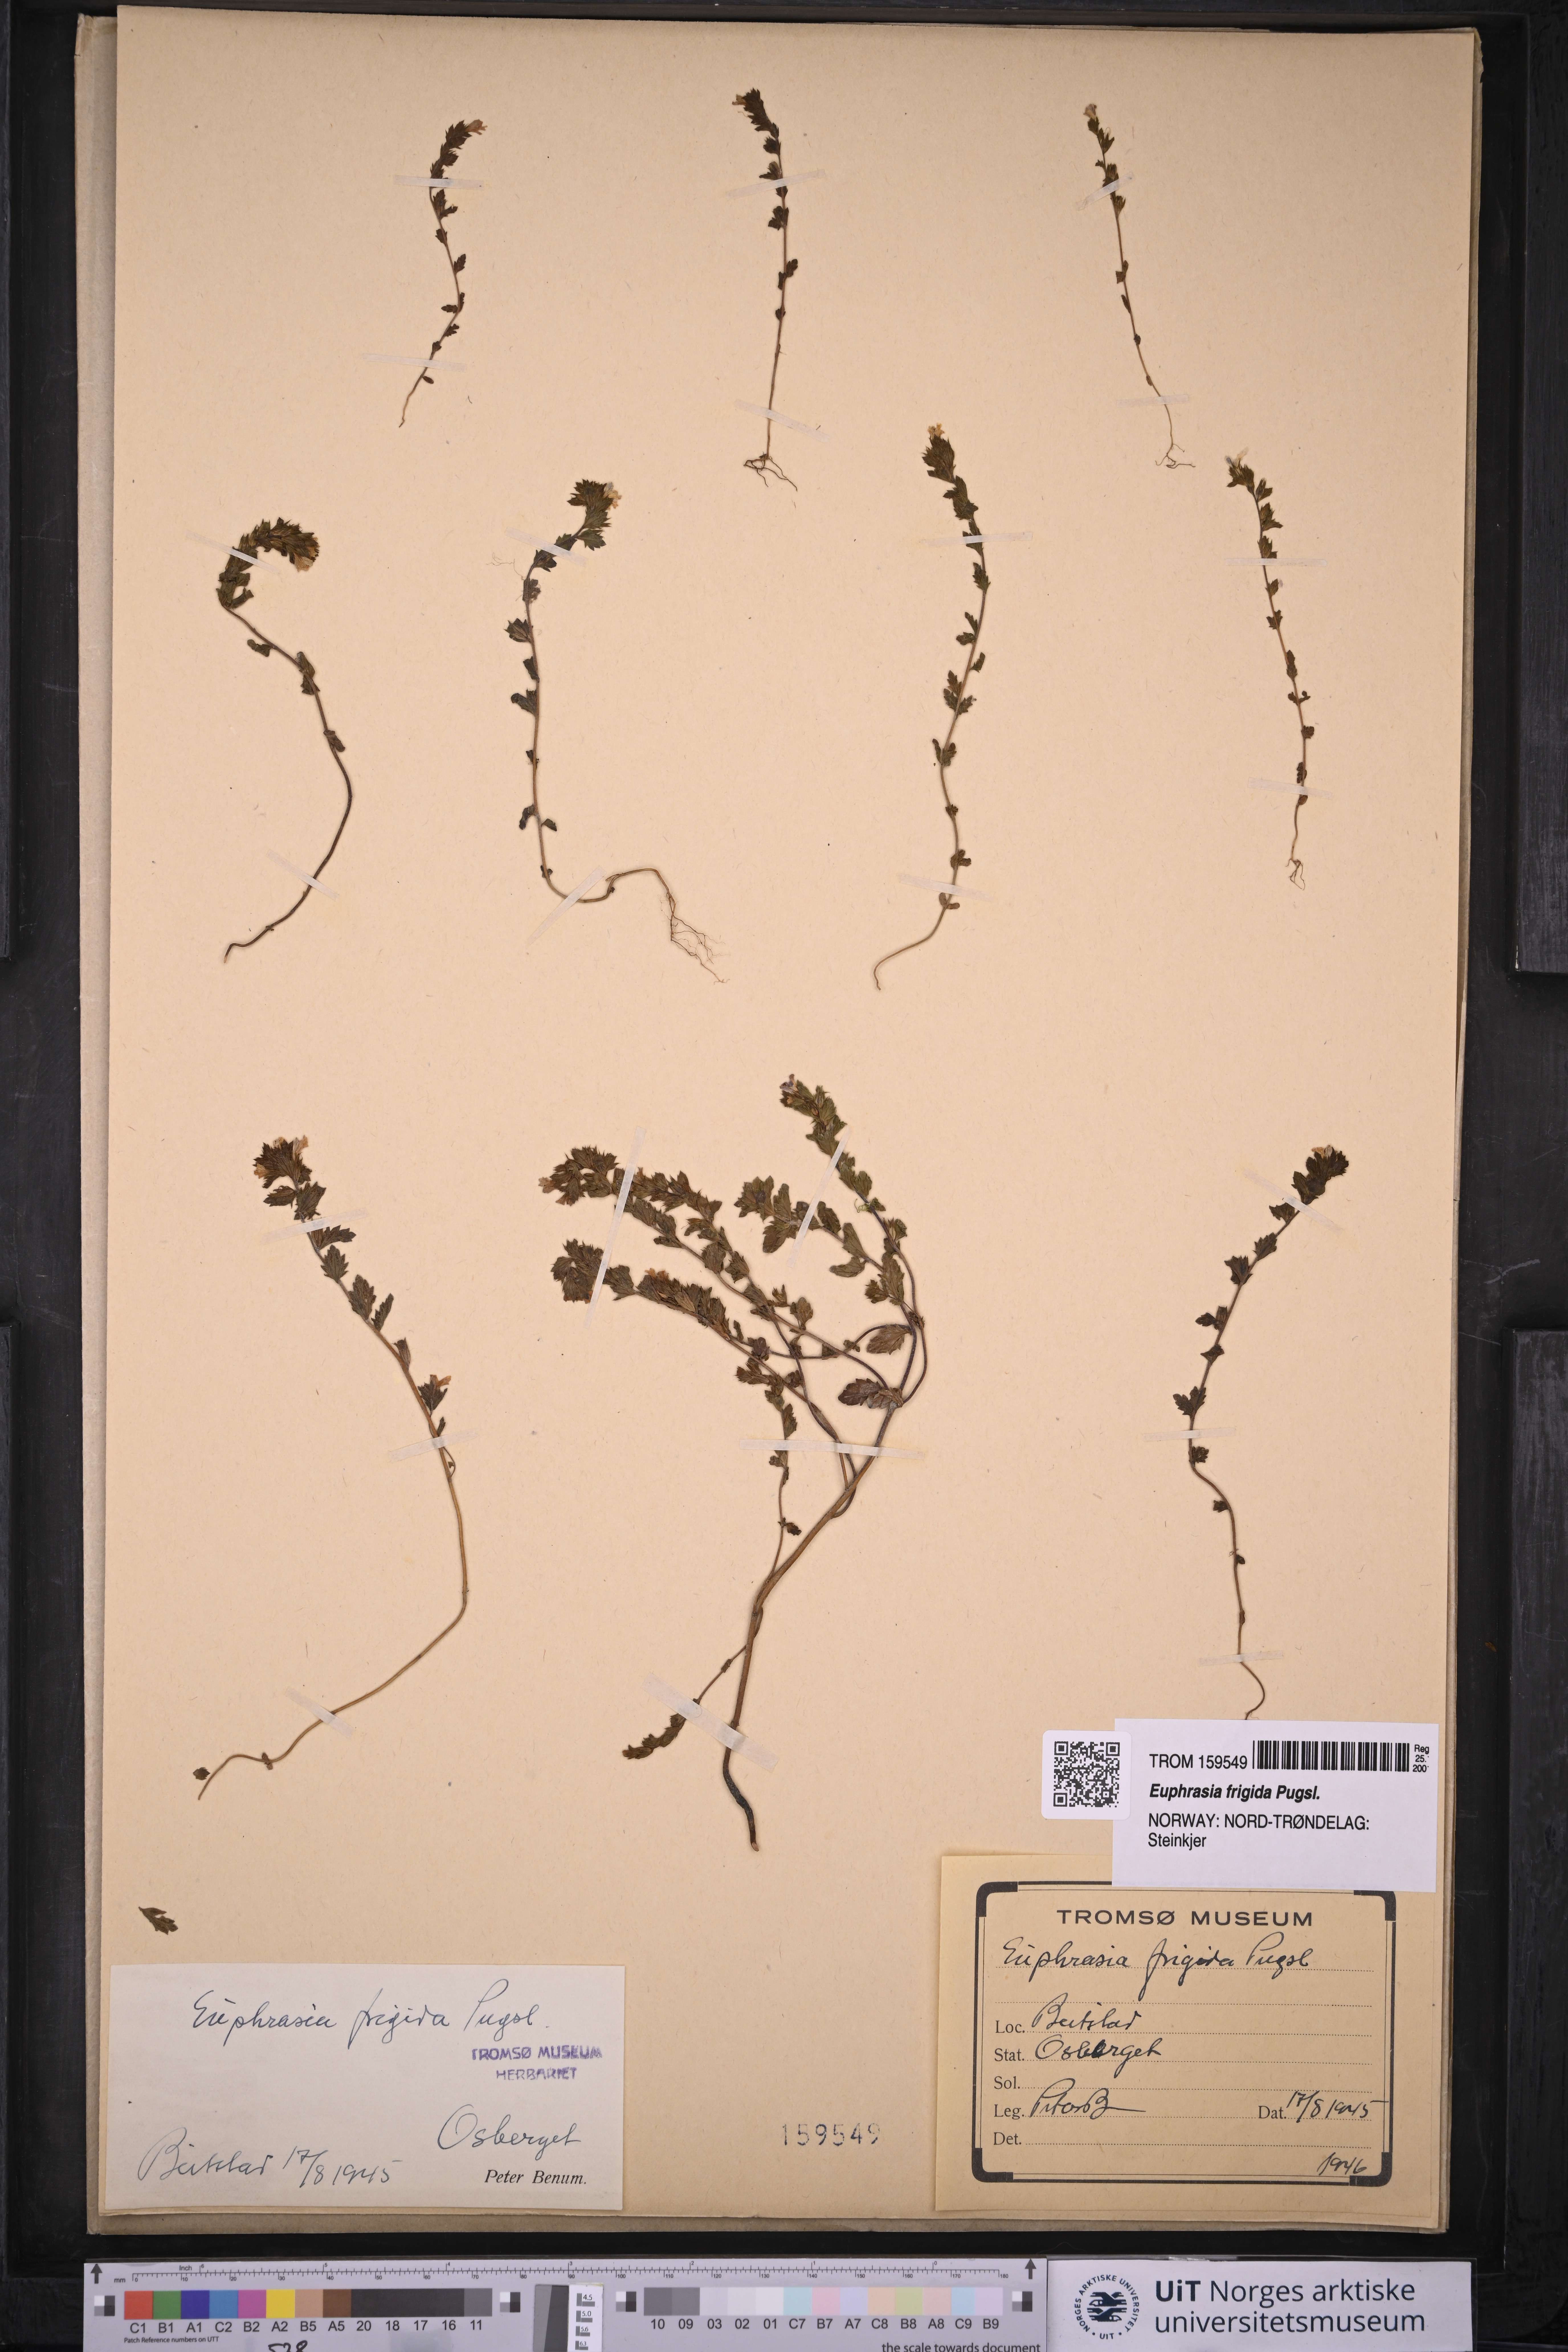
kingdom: Plantae
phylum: Tracheophyta
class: Magnoliopsida
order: Lamiales
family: Orobanchaceae
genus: Euphrasia
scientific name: Euphrasia frigida
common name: An eyebright
